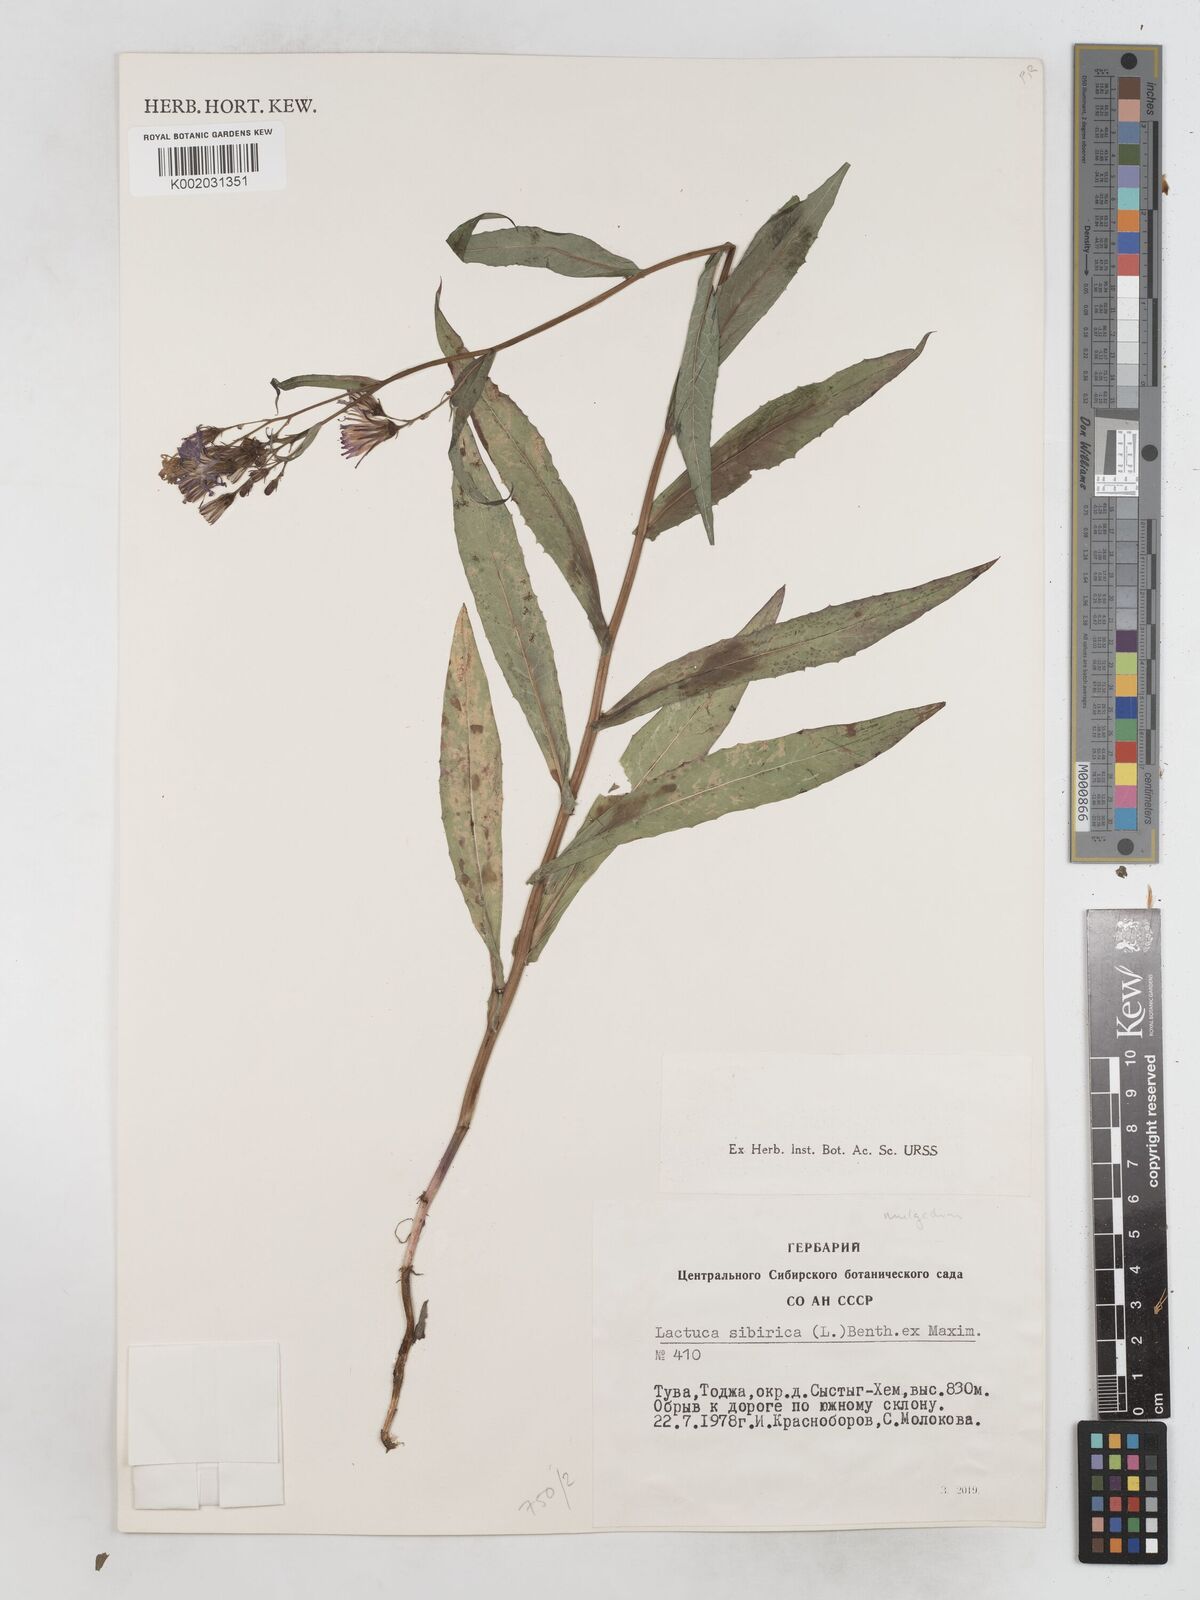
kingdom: Plantae
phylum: Tracheophyta
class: Magnoliopsida
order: Asterales
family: Asteraceae
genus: Lactuca
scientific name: Lactuca sibirica
